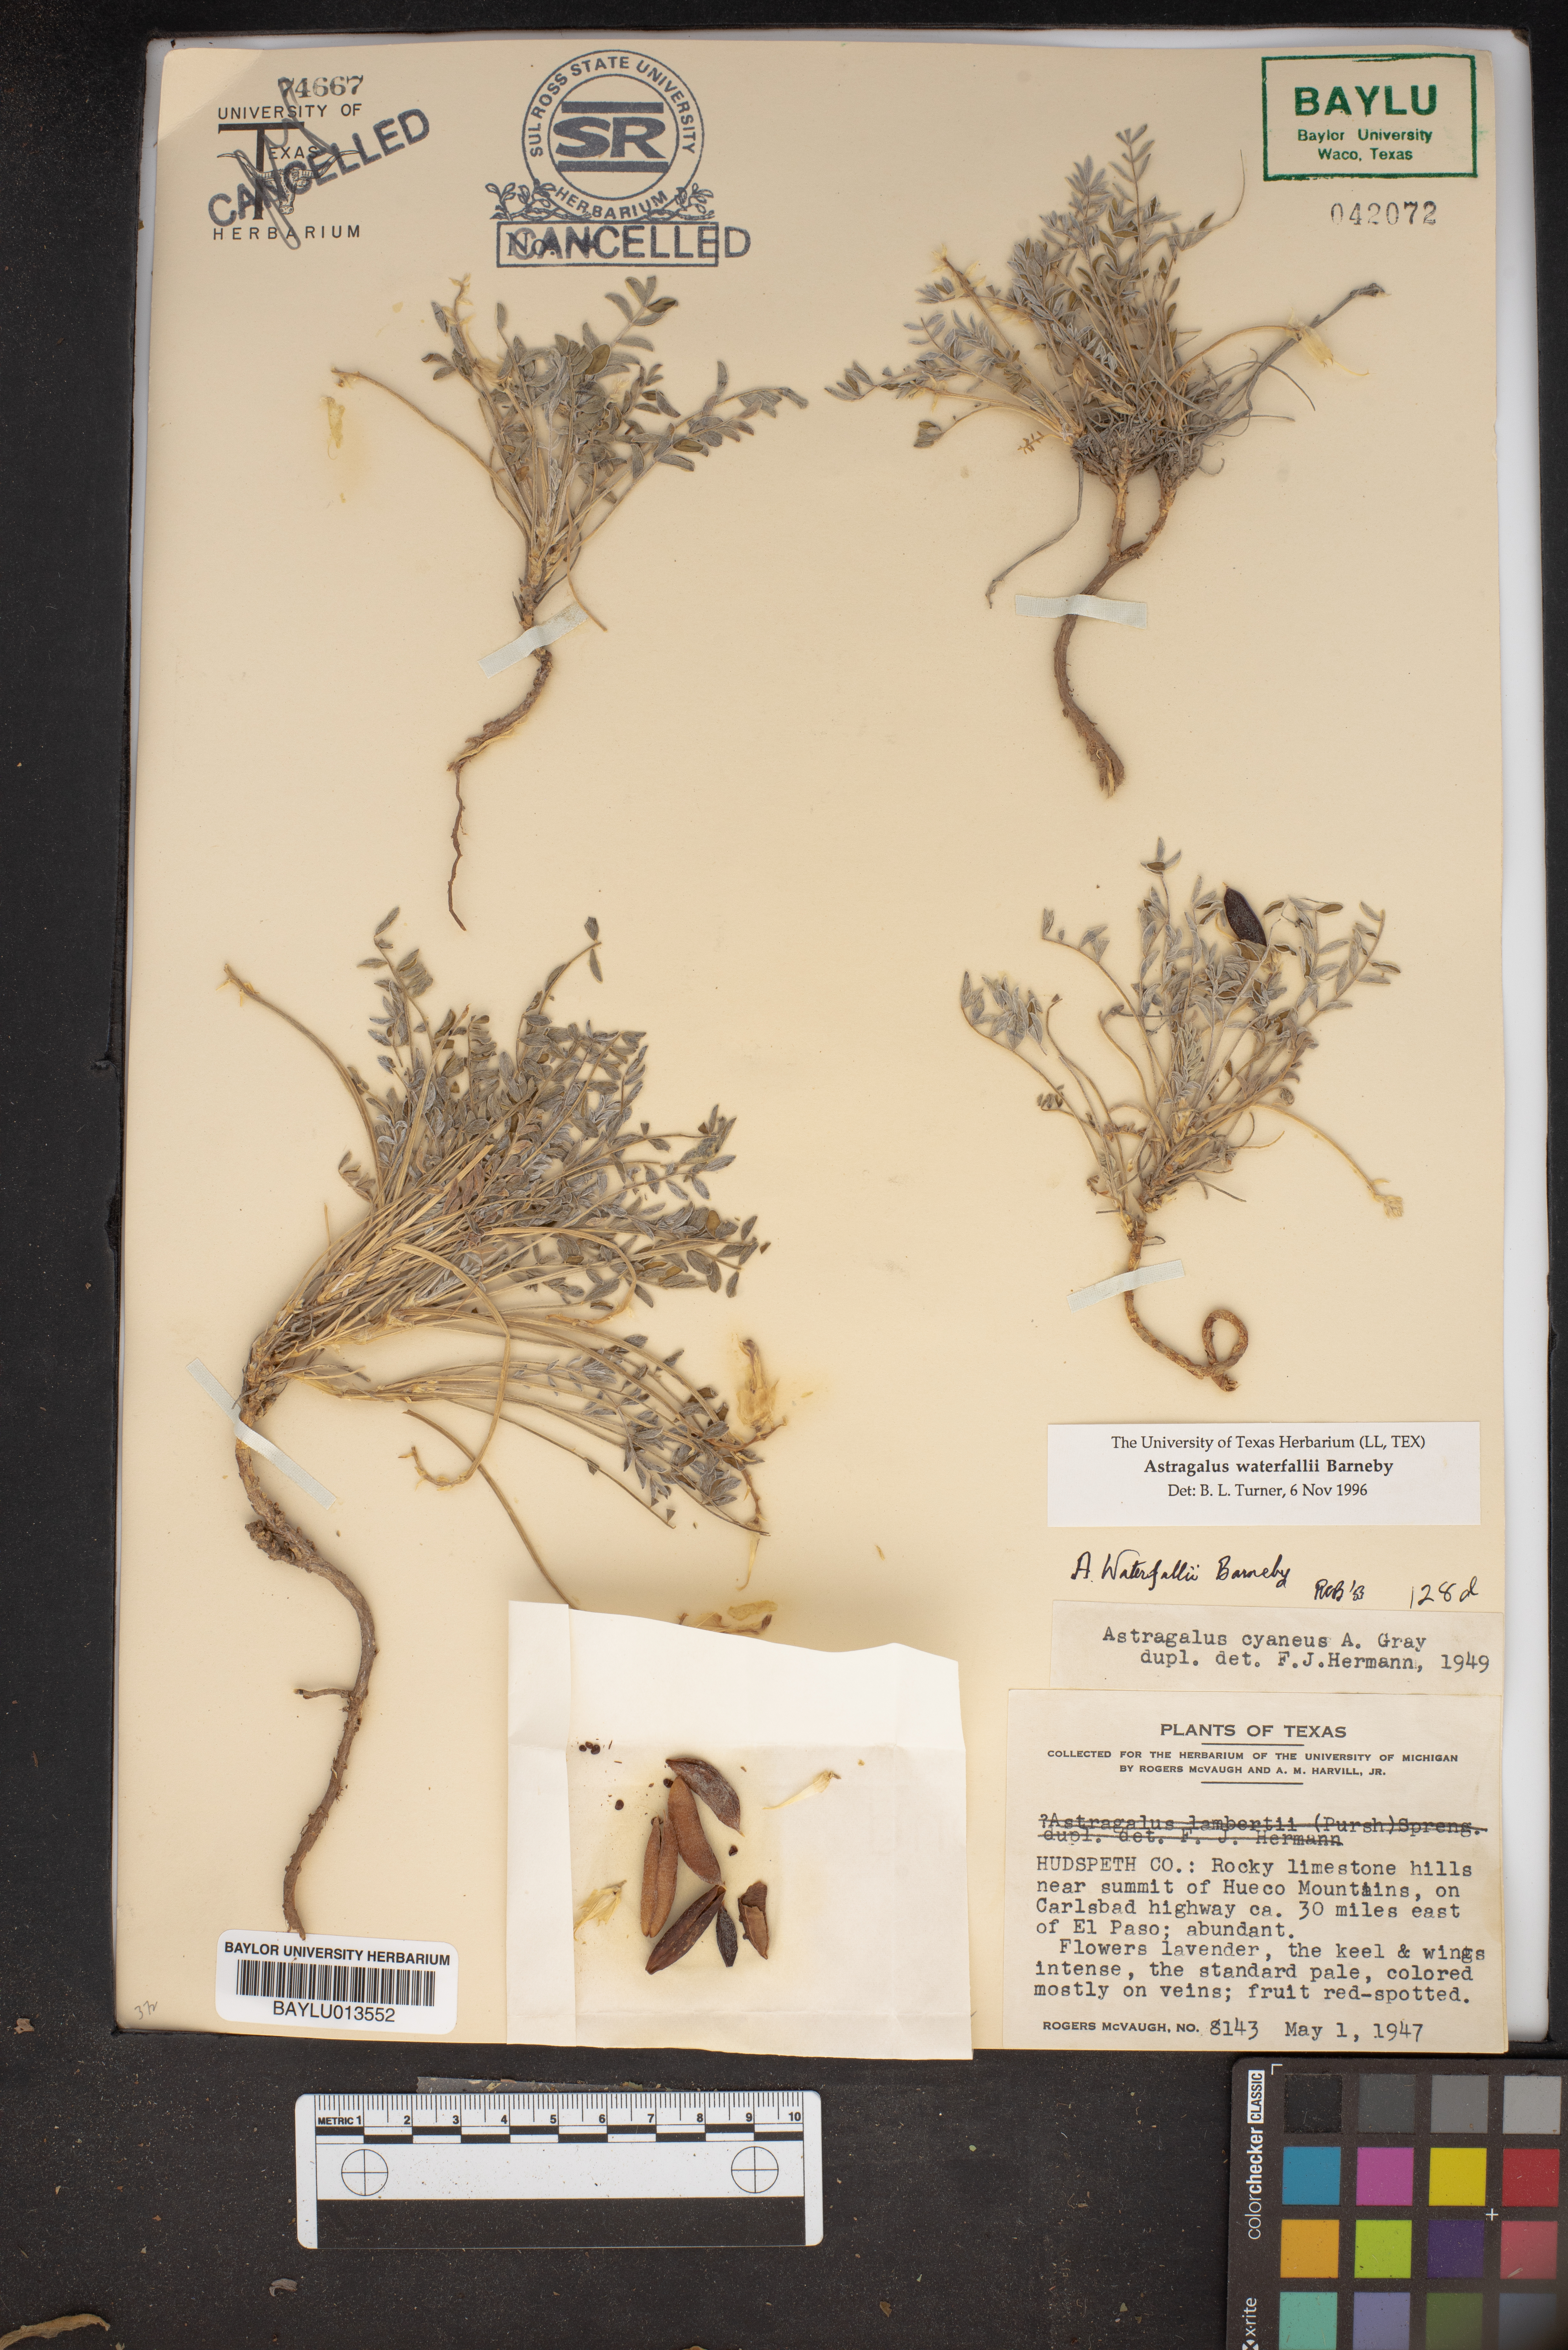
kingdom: Plantae
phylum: Tracheophyta
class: Magnoliopsida
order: Fabales
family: Fabaceae
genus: Astragalus
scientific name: Astragalus waterfallii
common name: Waterfall's milkvetch
